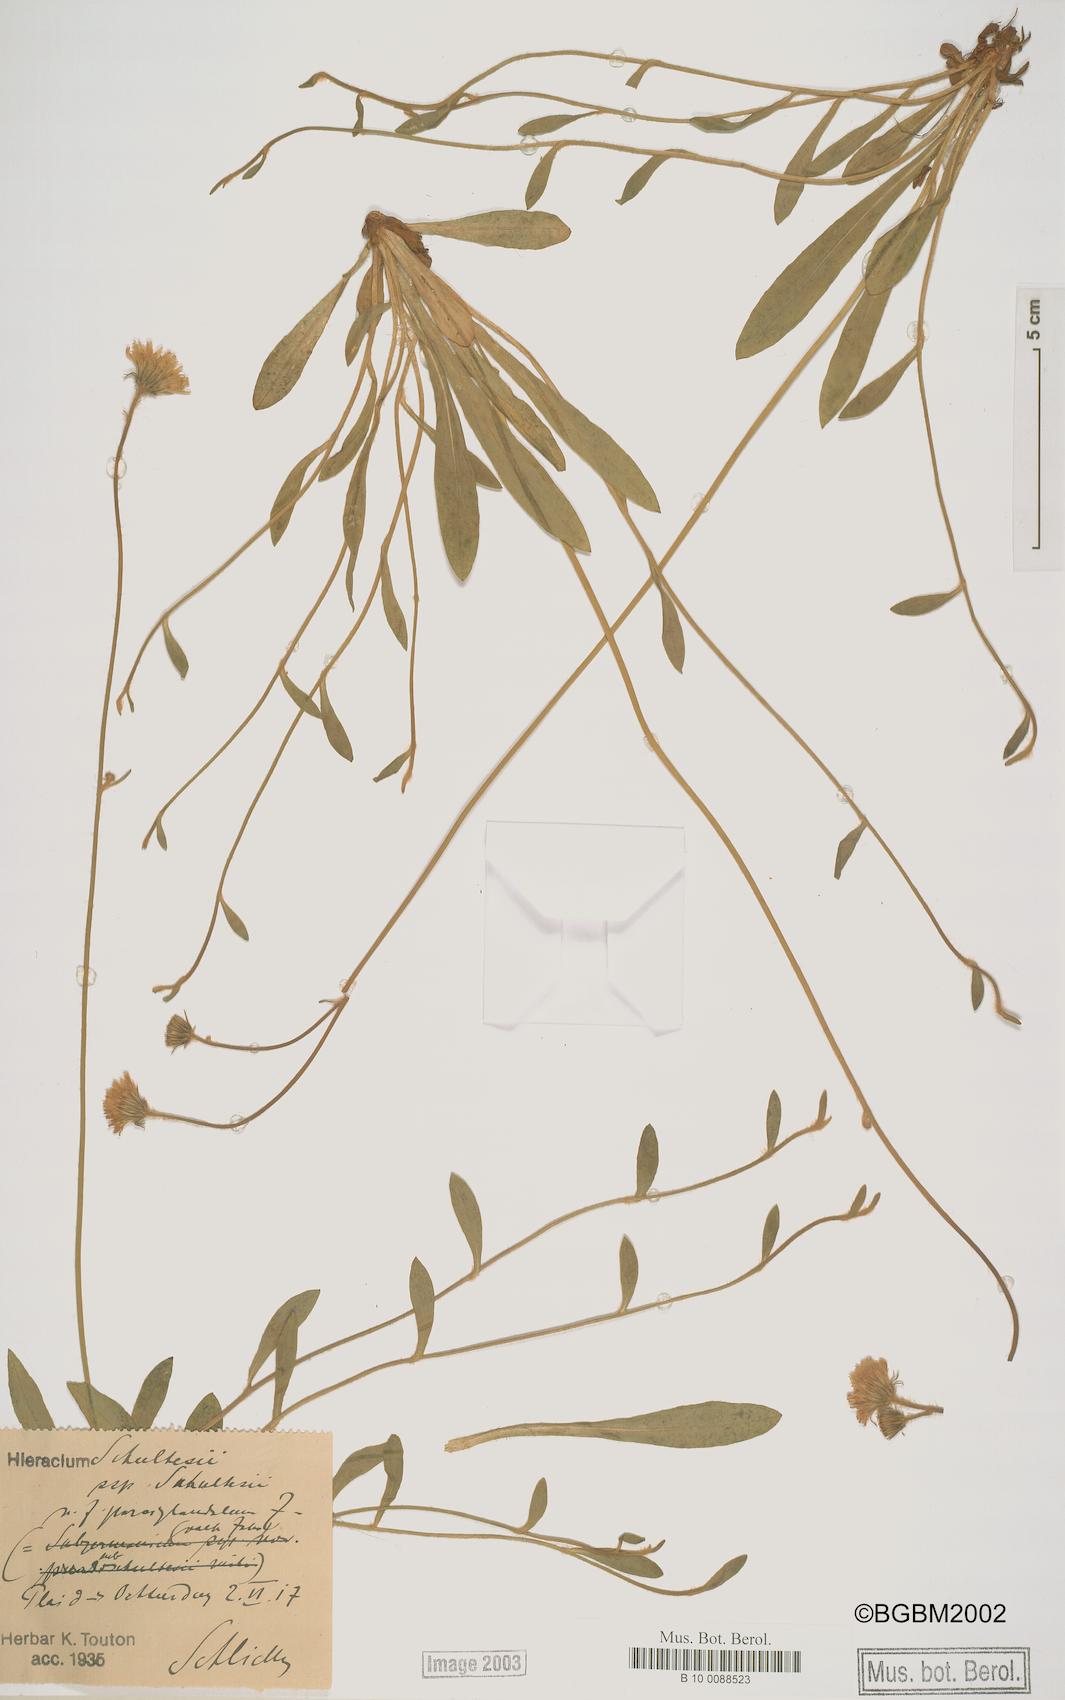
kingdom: Plantae
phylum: Tracheophyta
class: Magnoliopsida
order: Asterales
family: Asteraceae
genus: Pilosella
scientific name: Pilosella schultesii
